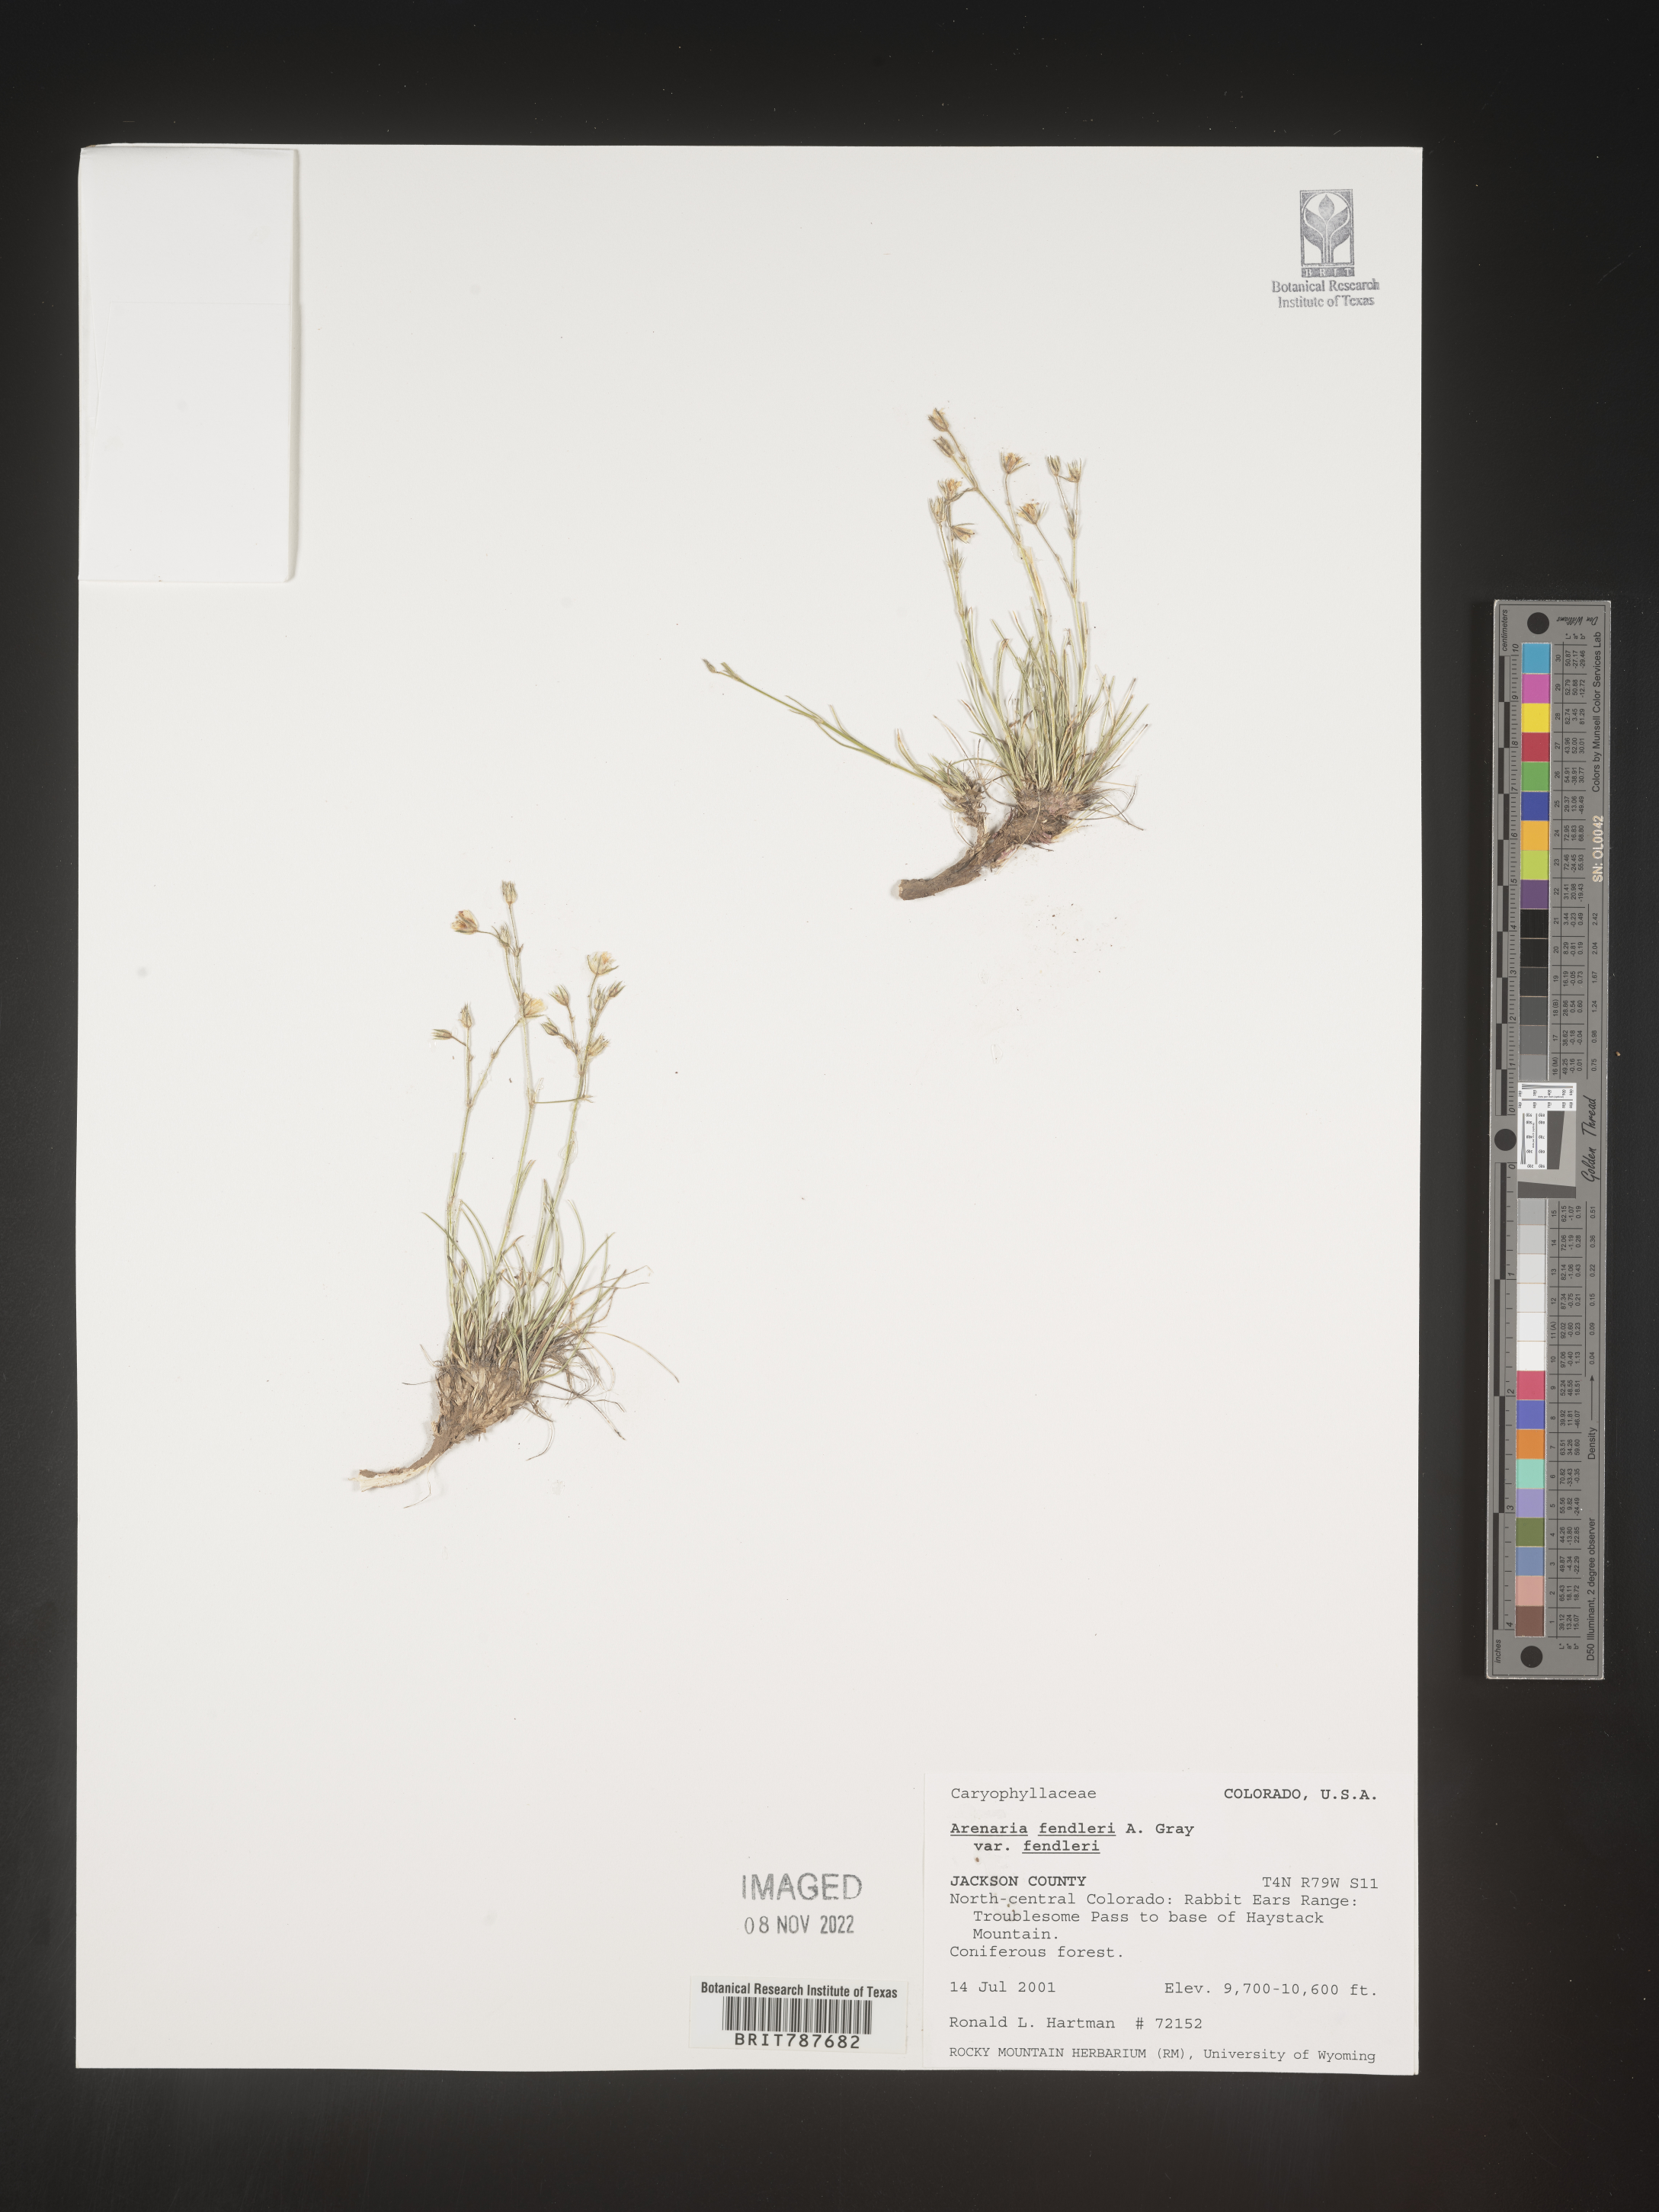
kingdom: Plantae
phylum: Tracheophyta
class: Magnoliopsida
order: Caryophyllales
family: Caryophyllaceae
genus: Arenaria
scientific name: Arenaria
